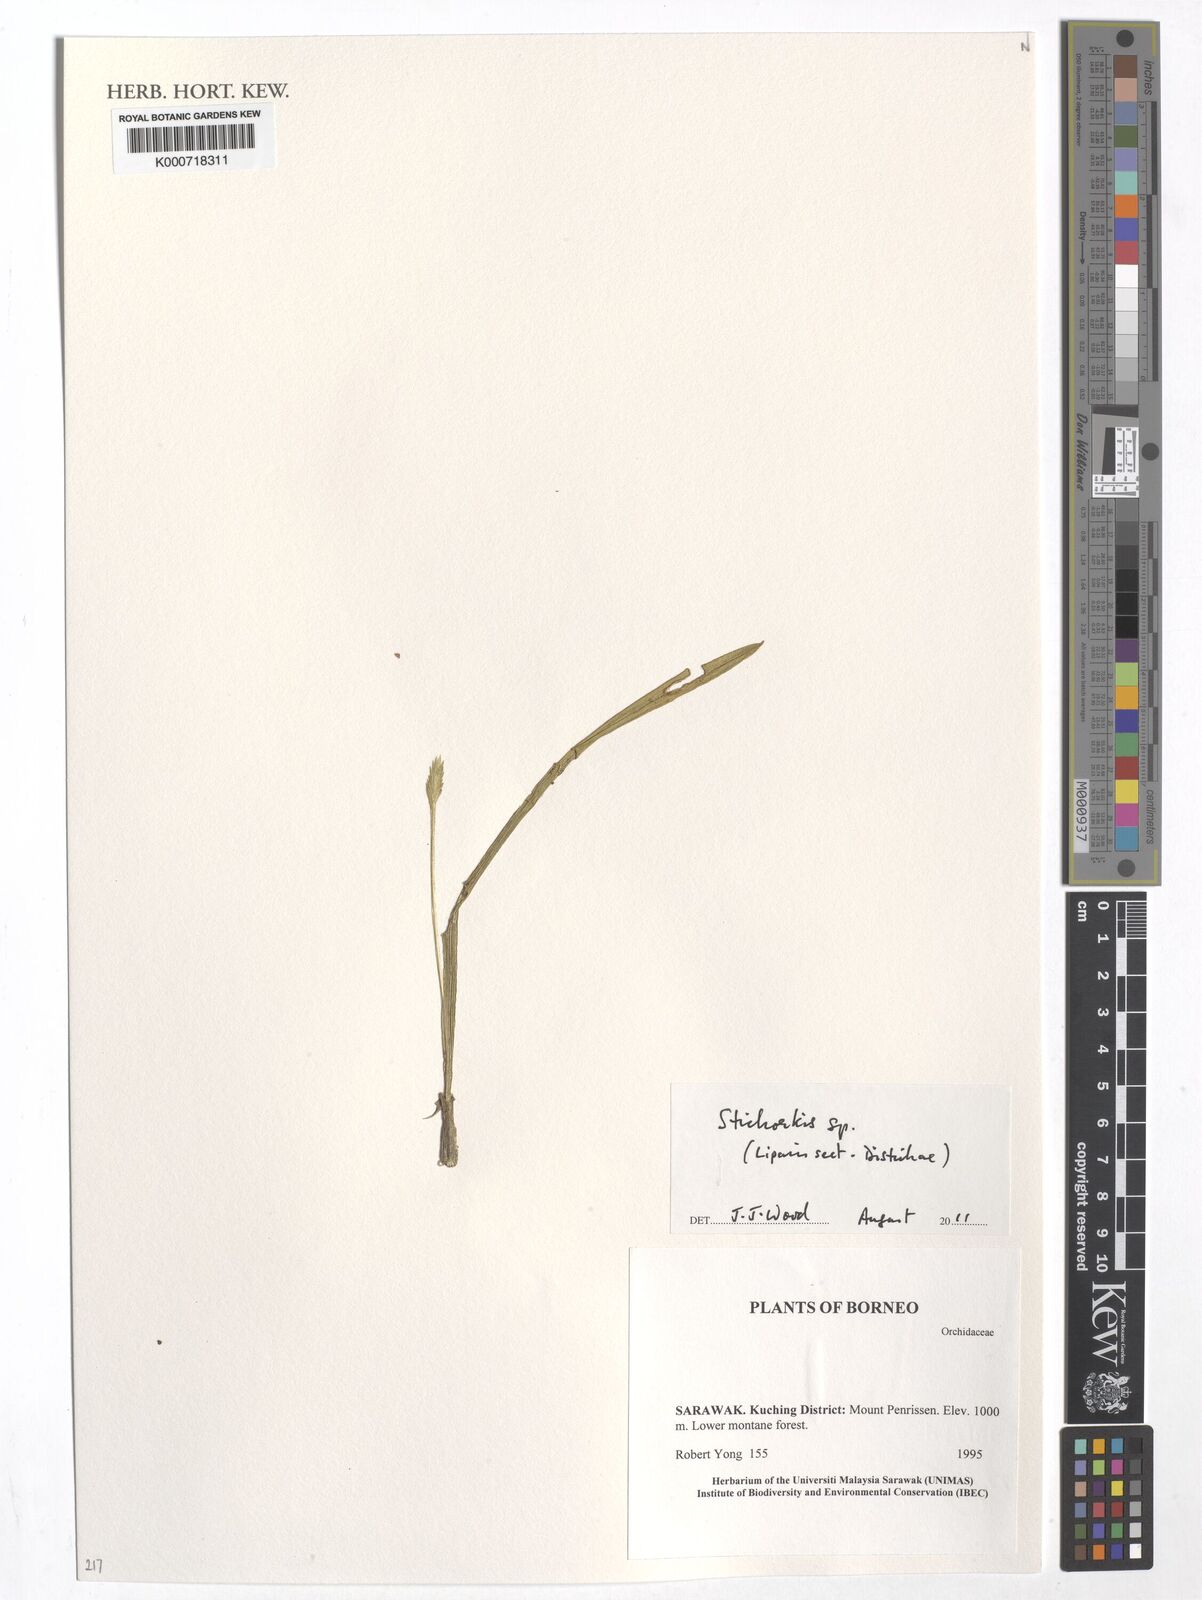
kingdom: Plantae
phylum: Tracheophyta
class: Liliopsida
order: Asparagales
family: Orchidaceae
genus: Liparis
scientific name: Liparis
